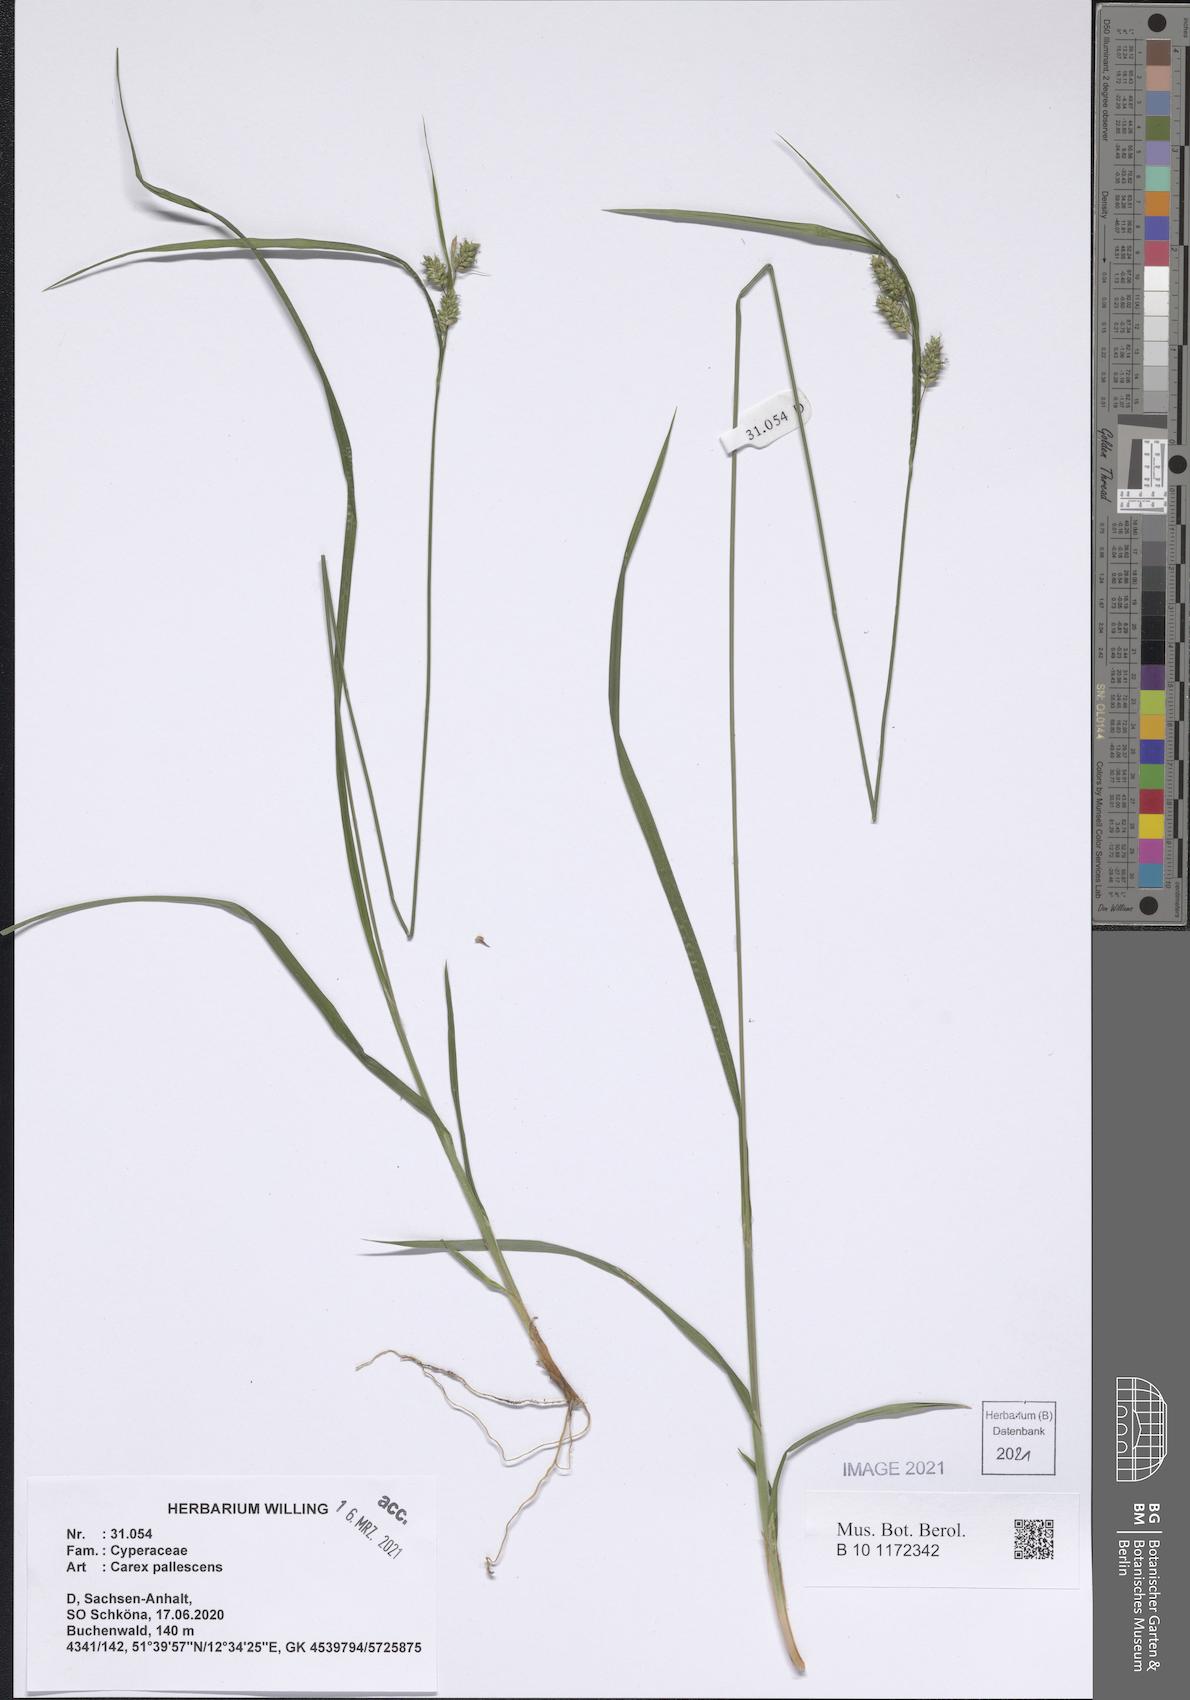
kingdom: Plantae
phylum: Tracheophyta
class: Liliopsida
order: Poales
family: Cyperaceae
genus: Carex
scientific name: Carex pallescens
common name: Pale sedge
